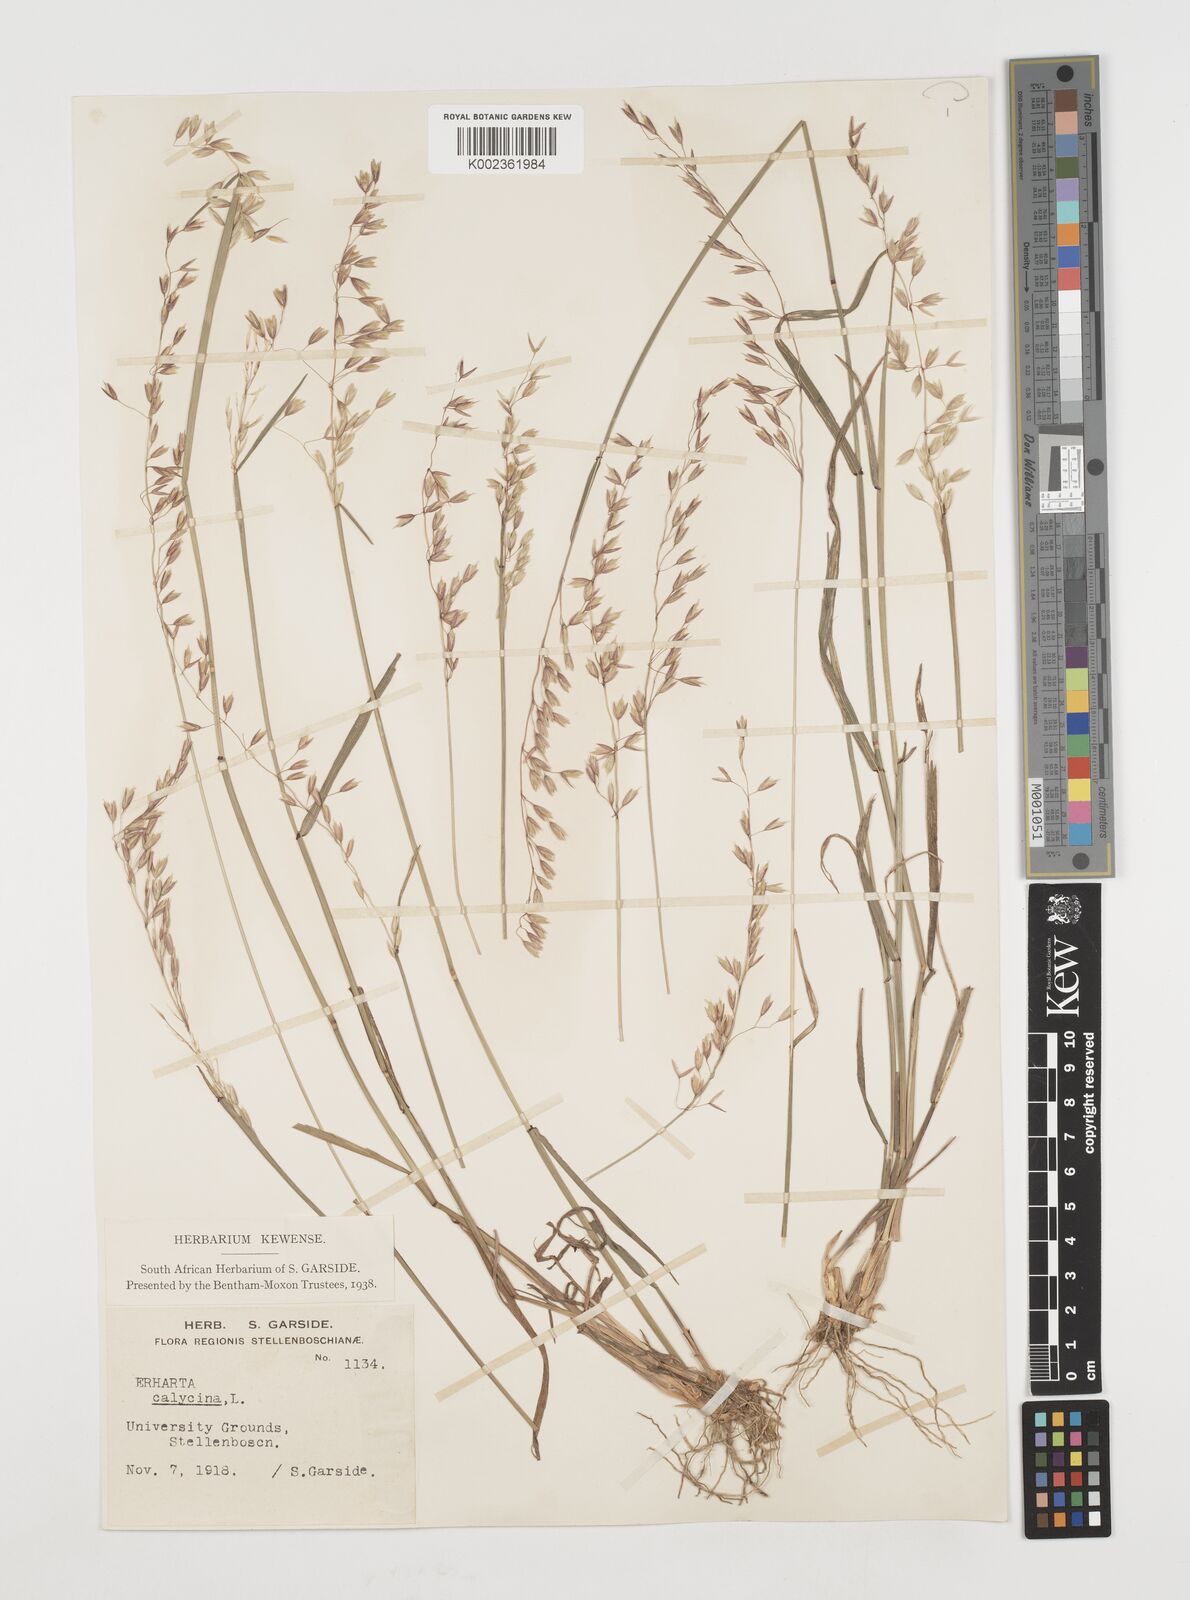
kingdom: Plantae
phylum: Tracheophyta
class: Liliopsida
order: Poales
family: Poaceae
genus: Ehrharta
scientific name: Ehrharta calycina
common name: Perennial veldtgrass
